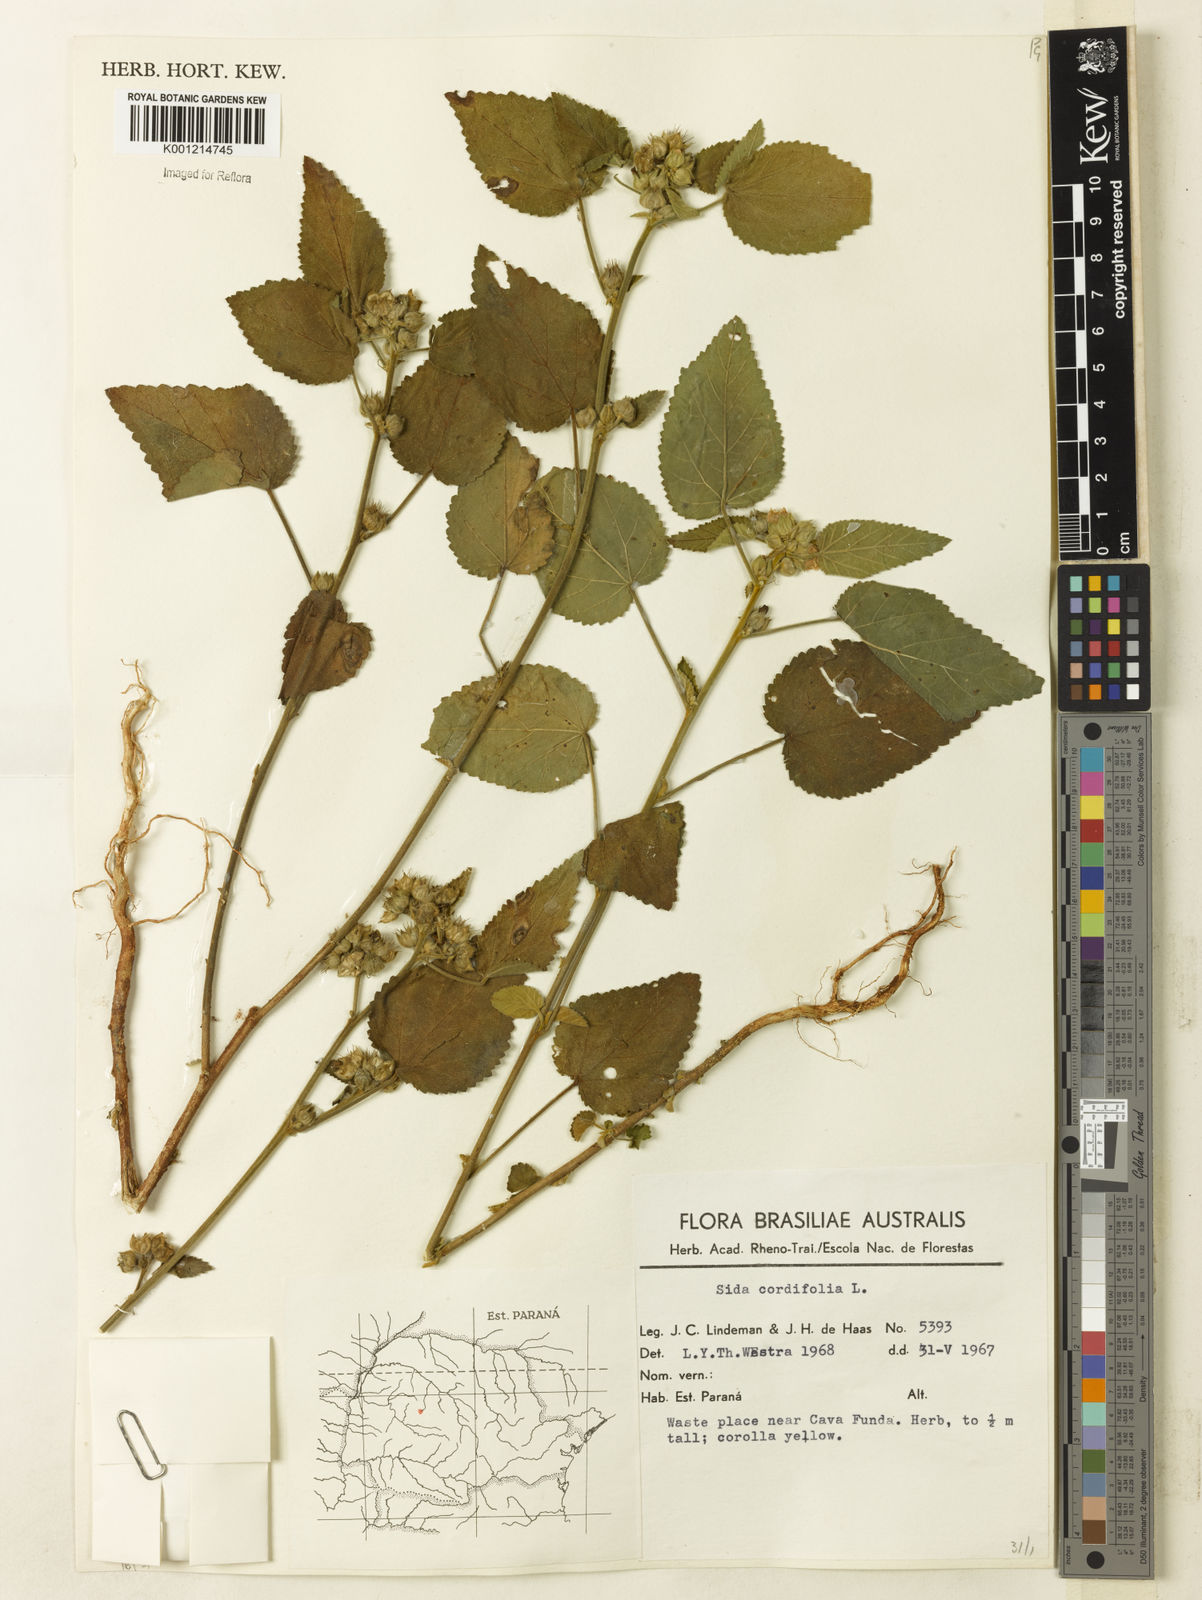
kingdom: Plantae
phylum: Tracheophyta
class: Magnoliopsida
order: Malvales
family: Malvaceae
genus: Sida
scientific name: Sida cordifolia
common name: Ilima
